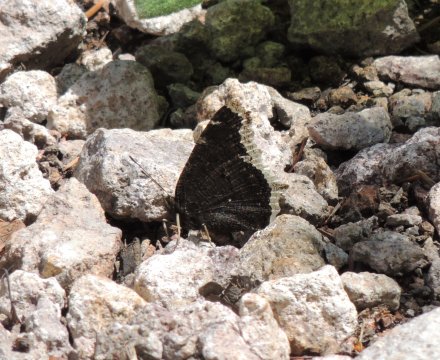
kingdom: Animalia
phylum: Arthropoda
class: Insecta
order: Lepidoptera
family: Nymphalidae
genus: Nymphalis
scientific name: Nymphalis antiopa
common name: Mourning Cloak
